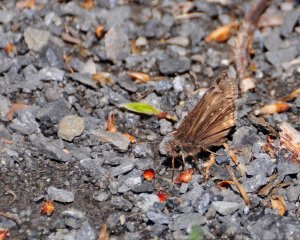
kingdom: Animalia
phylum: Arthropoda
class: Insecta
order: Lepidoptera
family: Hesperiidae
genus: Gesta
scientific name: Gesta
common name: Juvenal's Duskywing
